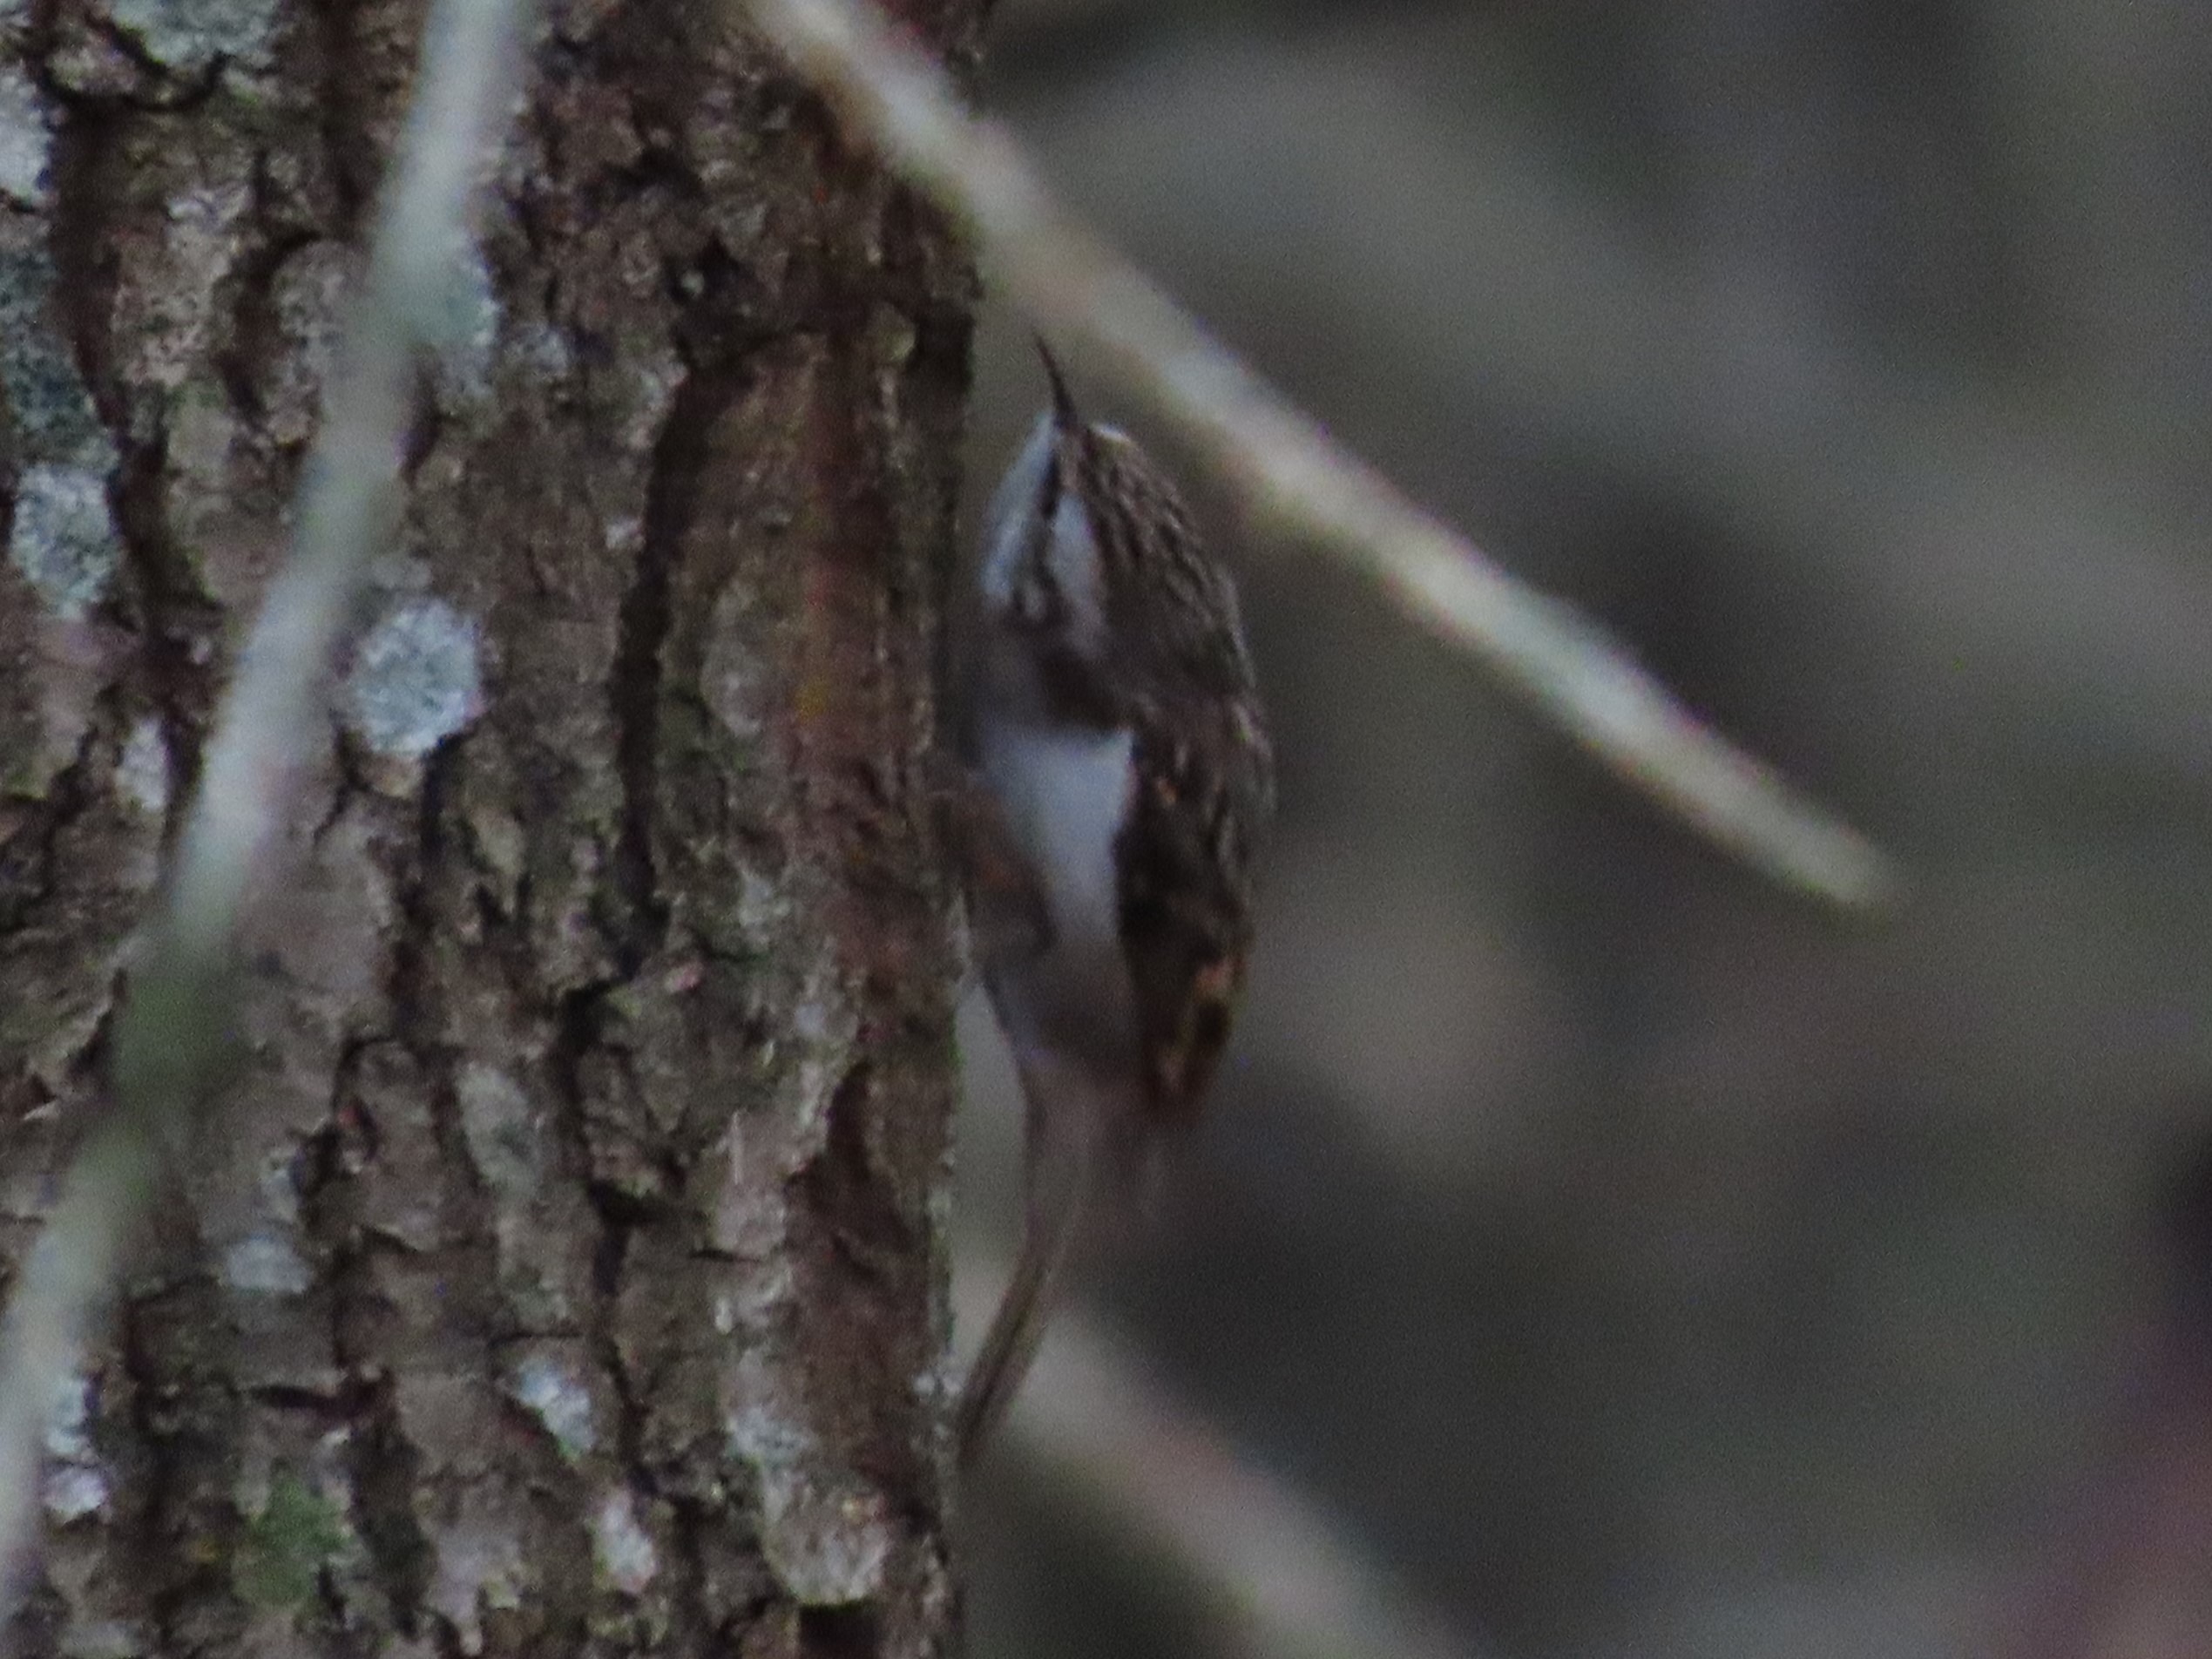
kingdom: Animalia
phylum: Chordata
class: Aves
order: Passeriformes
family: Certhiidae
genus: Certhia
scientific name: Certhia familiaris
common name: Træløber
